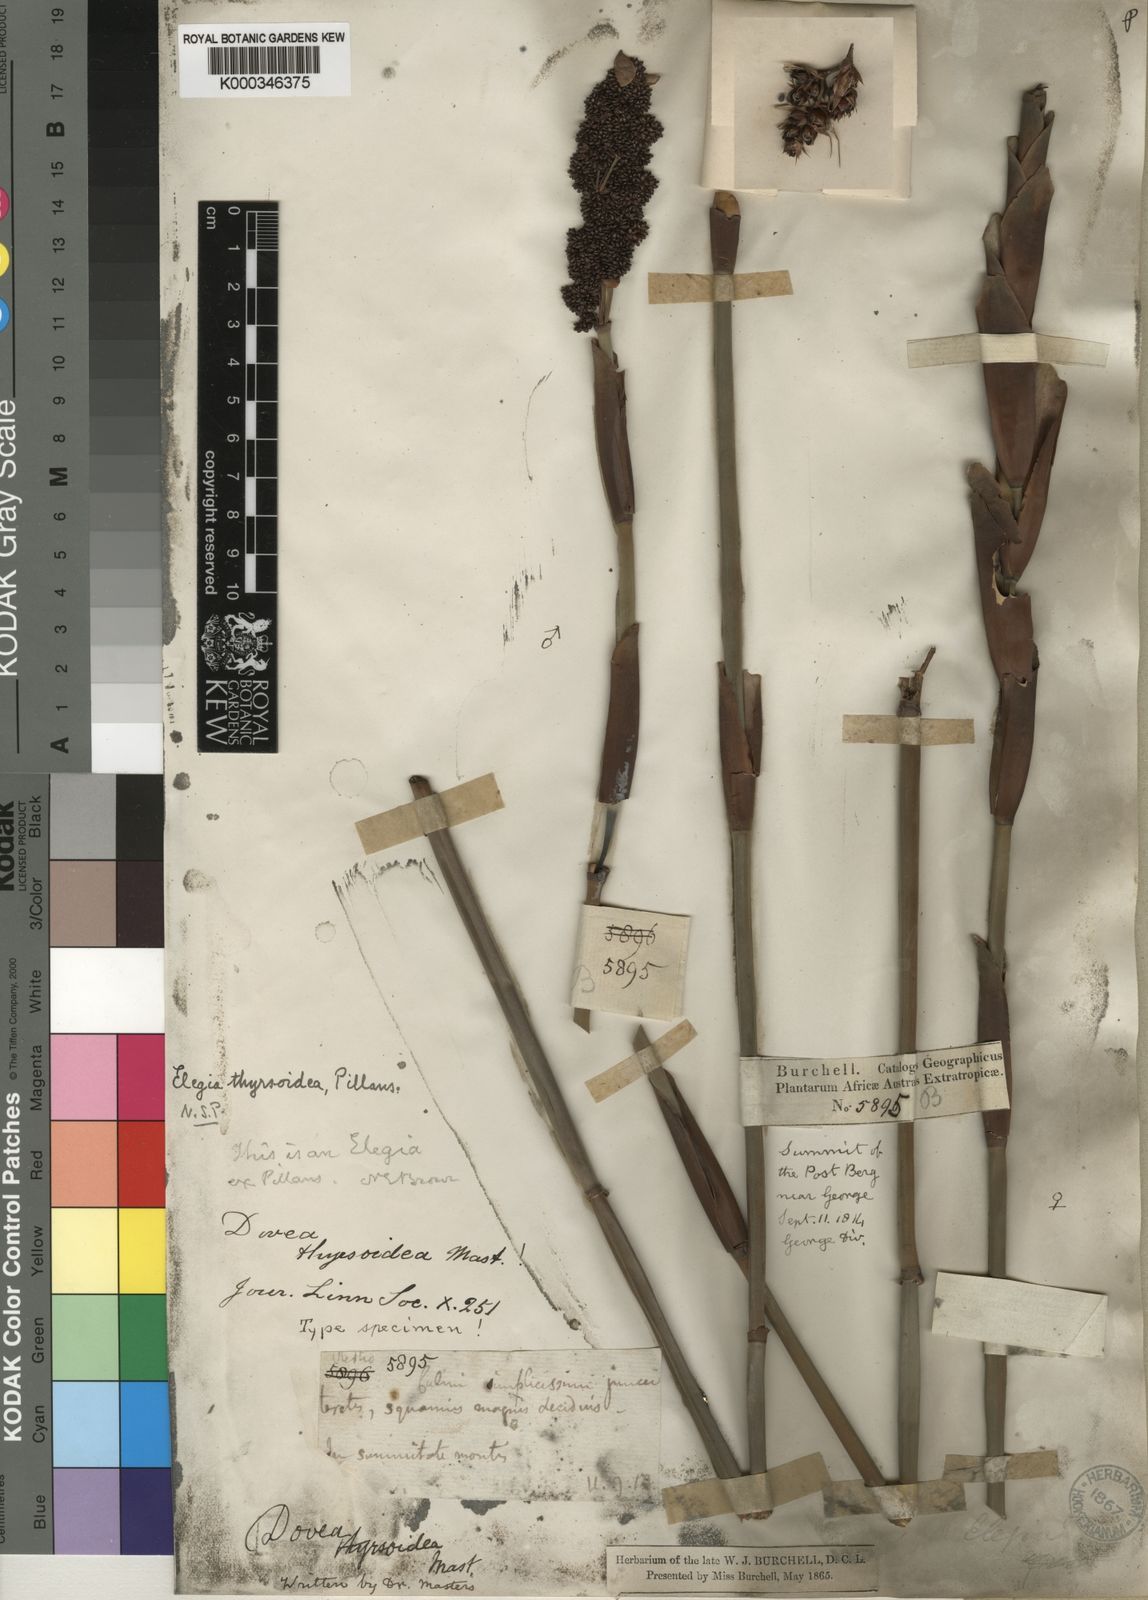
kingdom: Plantae
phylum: Tracheophyta
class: Liliopsida
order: Poales
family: Restionaceae
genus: Elegia
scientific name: Elegia thyrsoidea
